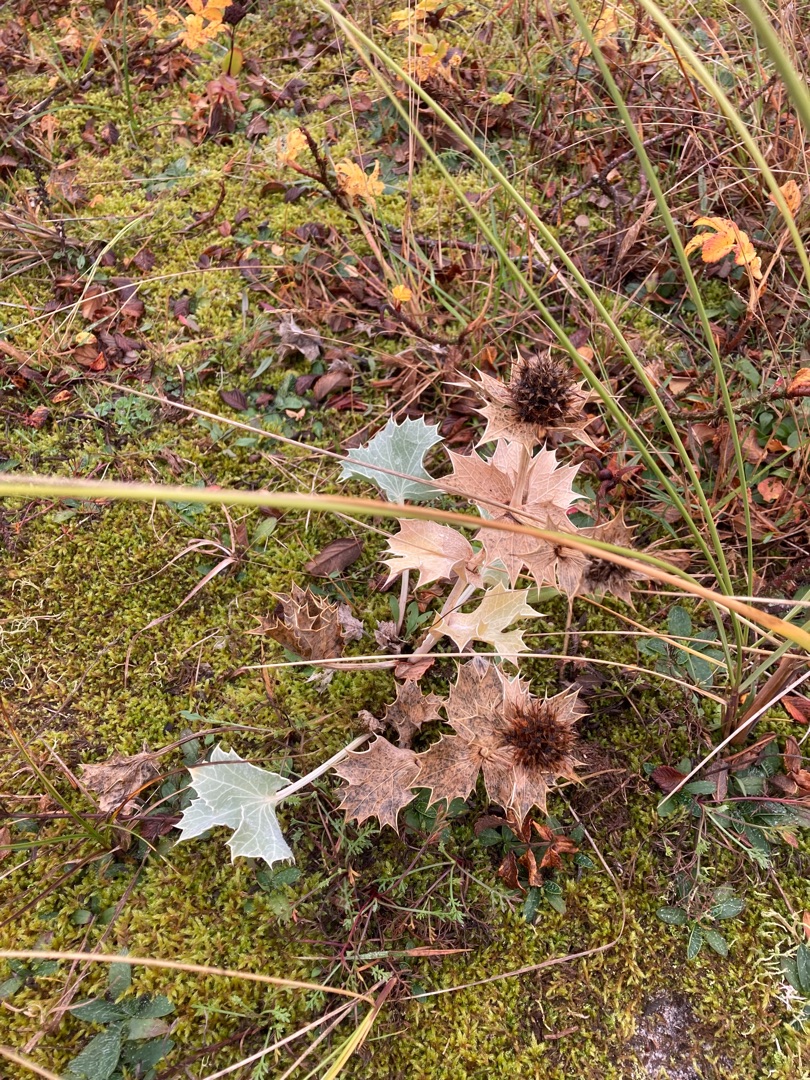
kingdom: Plantae
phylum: Tracheophyta
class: Magnoliopsida
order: Apiales
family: Apiaceae
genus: Eryngium
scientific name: Eryngium maritimum
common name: Strand-mandstro
